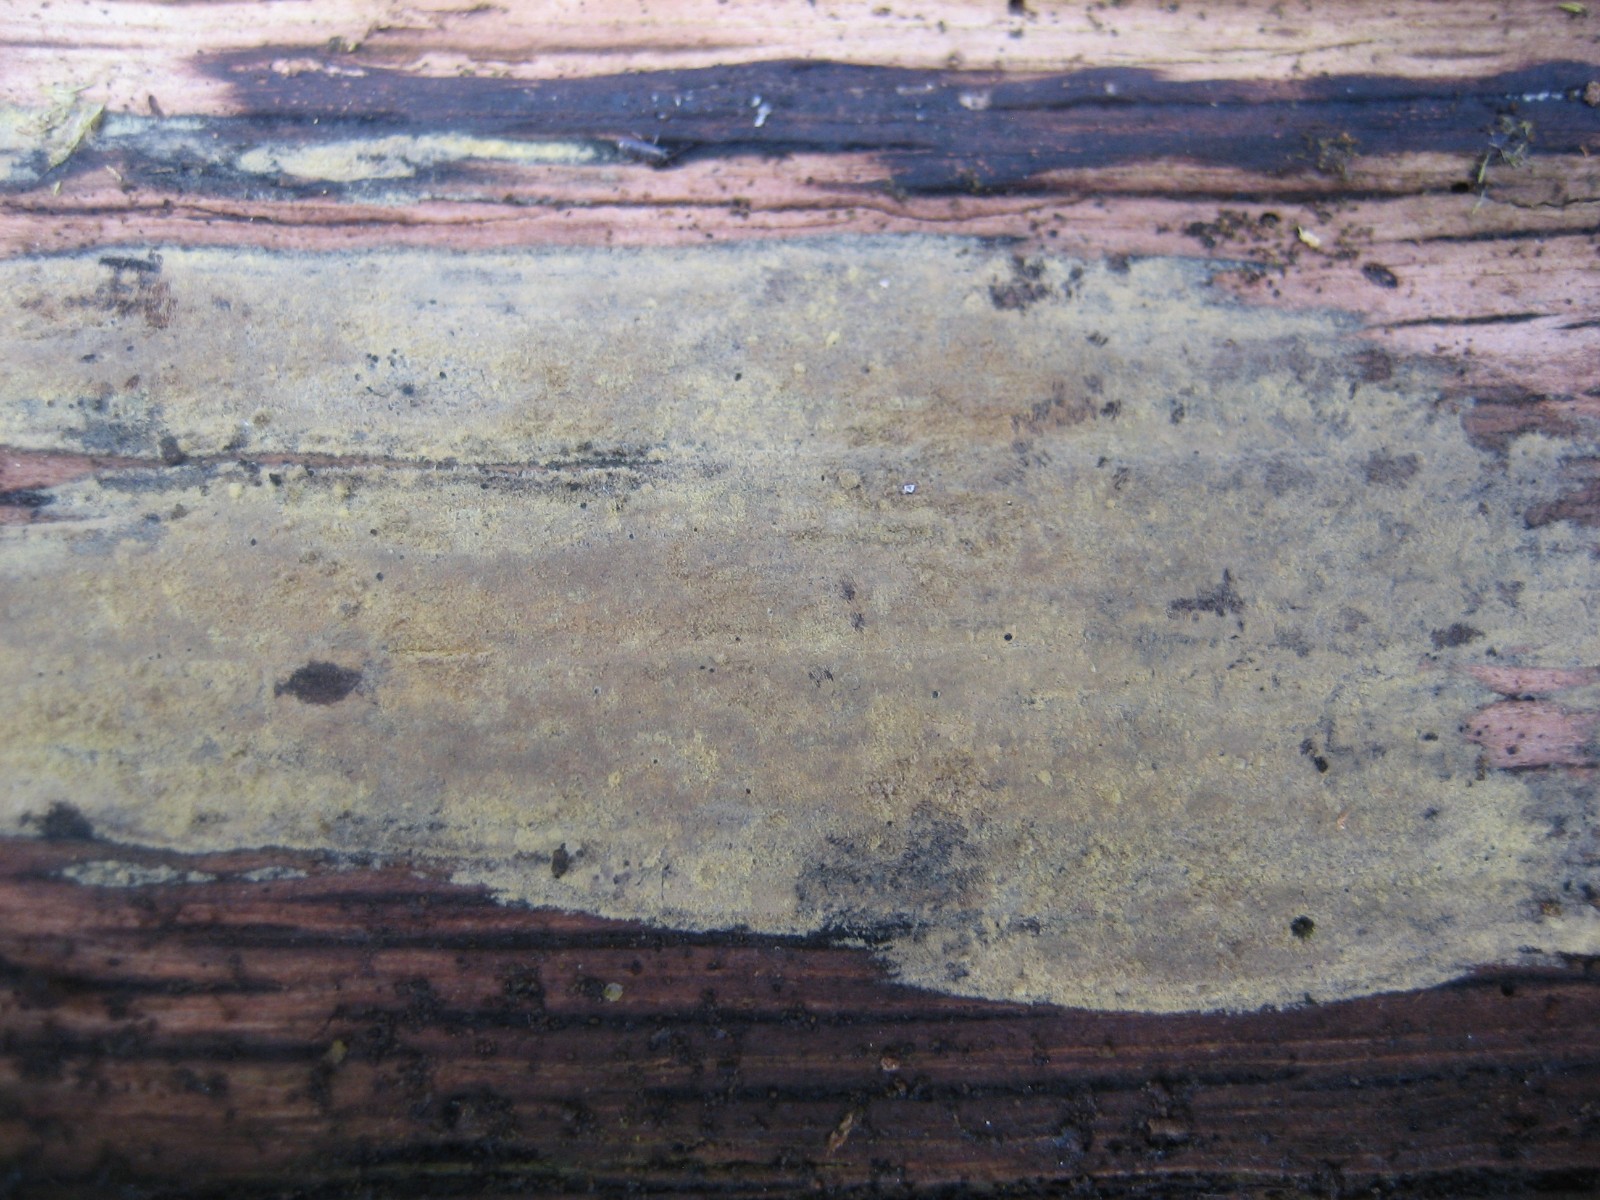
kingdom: Fungi
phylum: Basidiomycota
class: Agaricomycetes
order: Corticiales
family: Corticiaceae
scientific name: Corticiaceae
